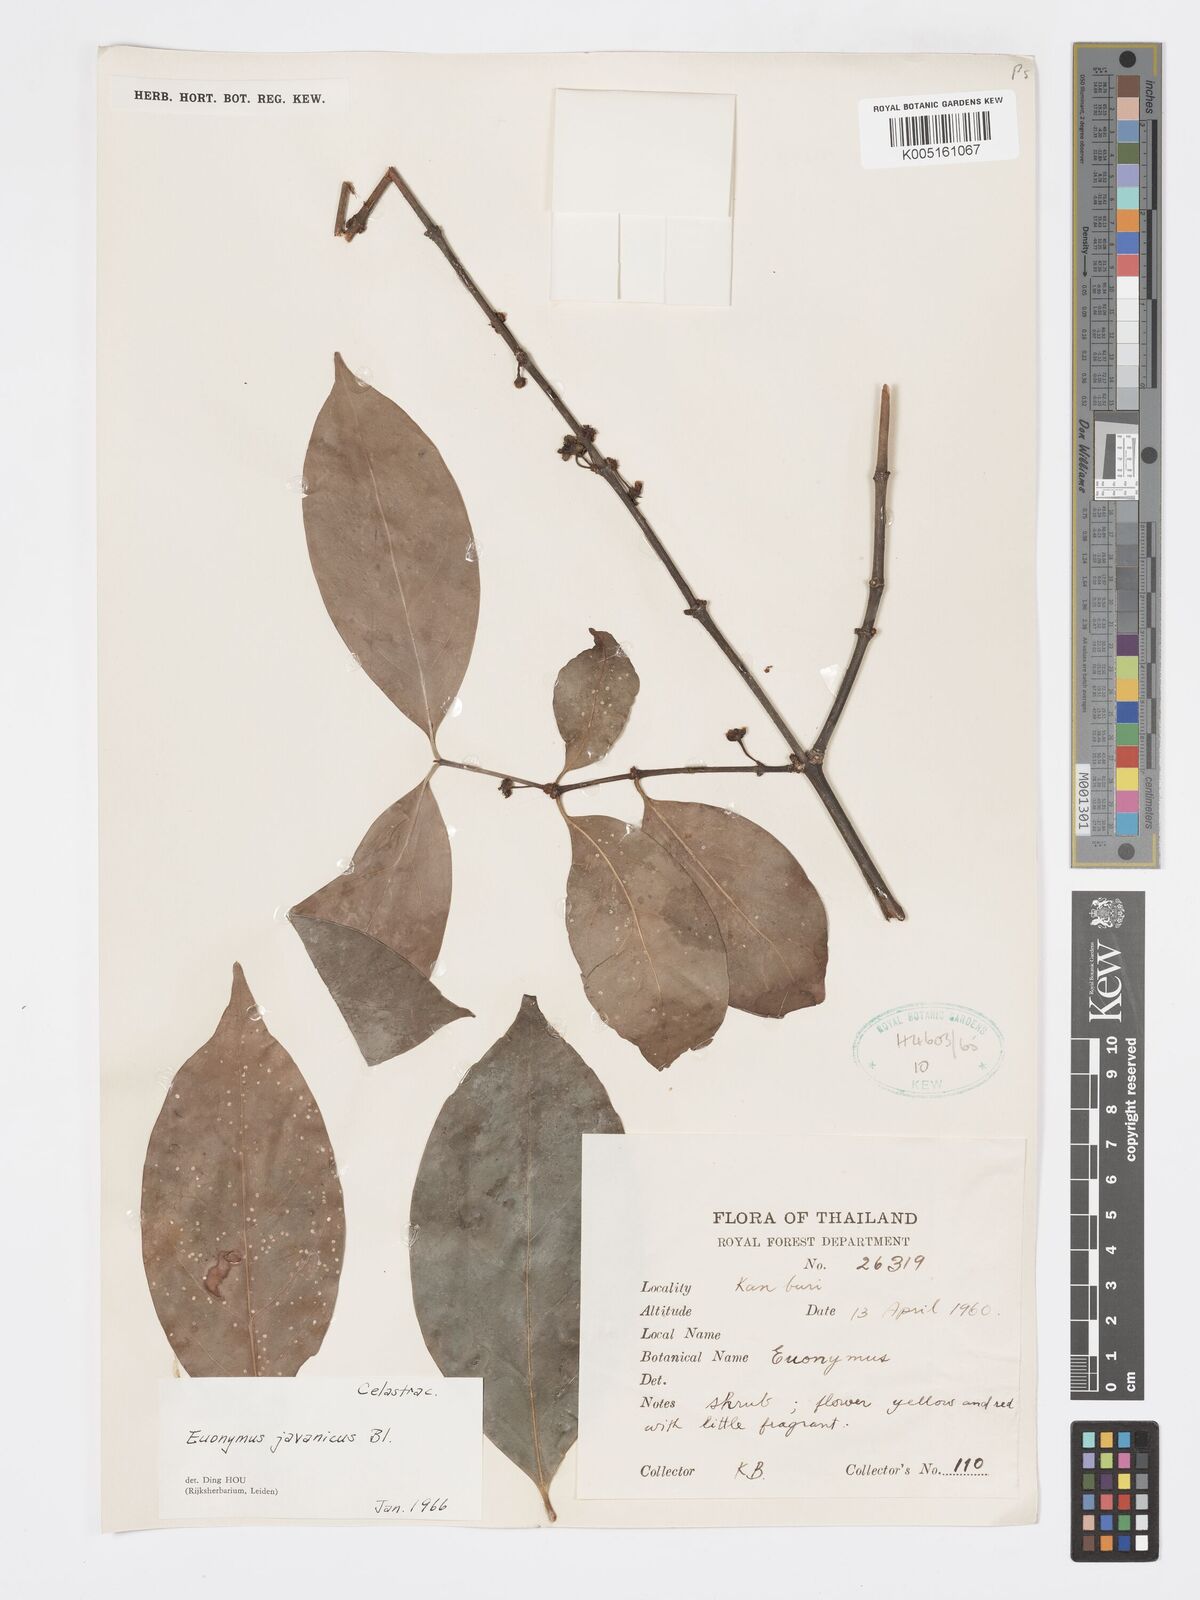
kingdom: Plantae
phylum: Tracheophyta
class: Magnoliopsida
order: Celastrales
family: Celastraceae
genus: Euonymus
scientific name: Euonymus indicus
